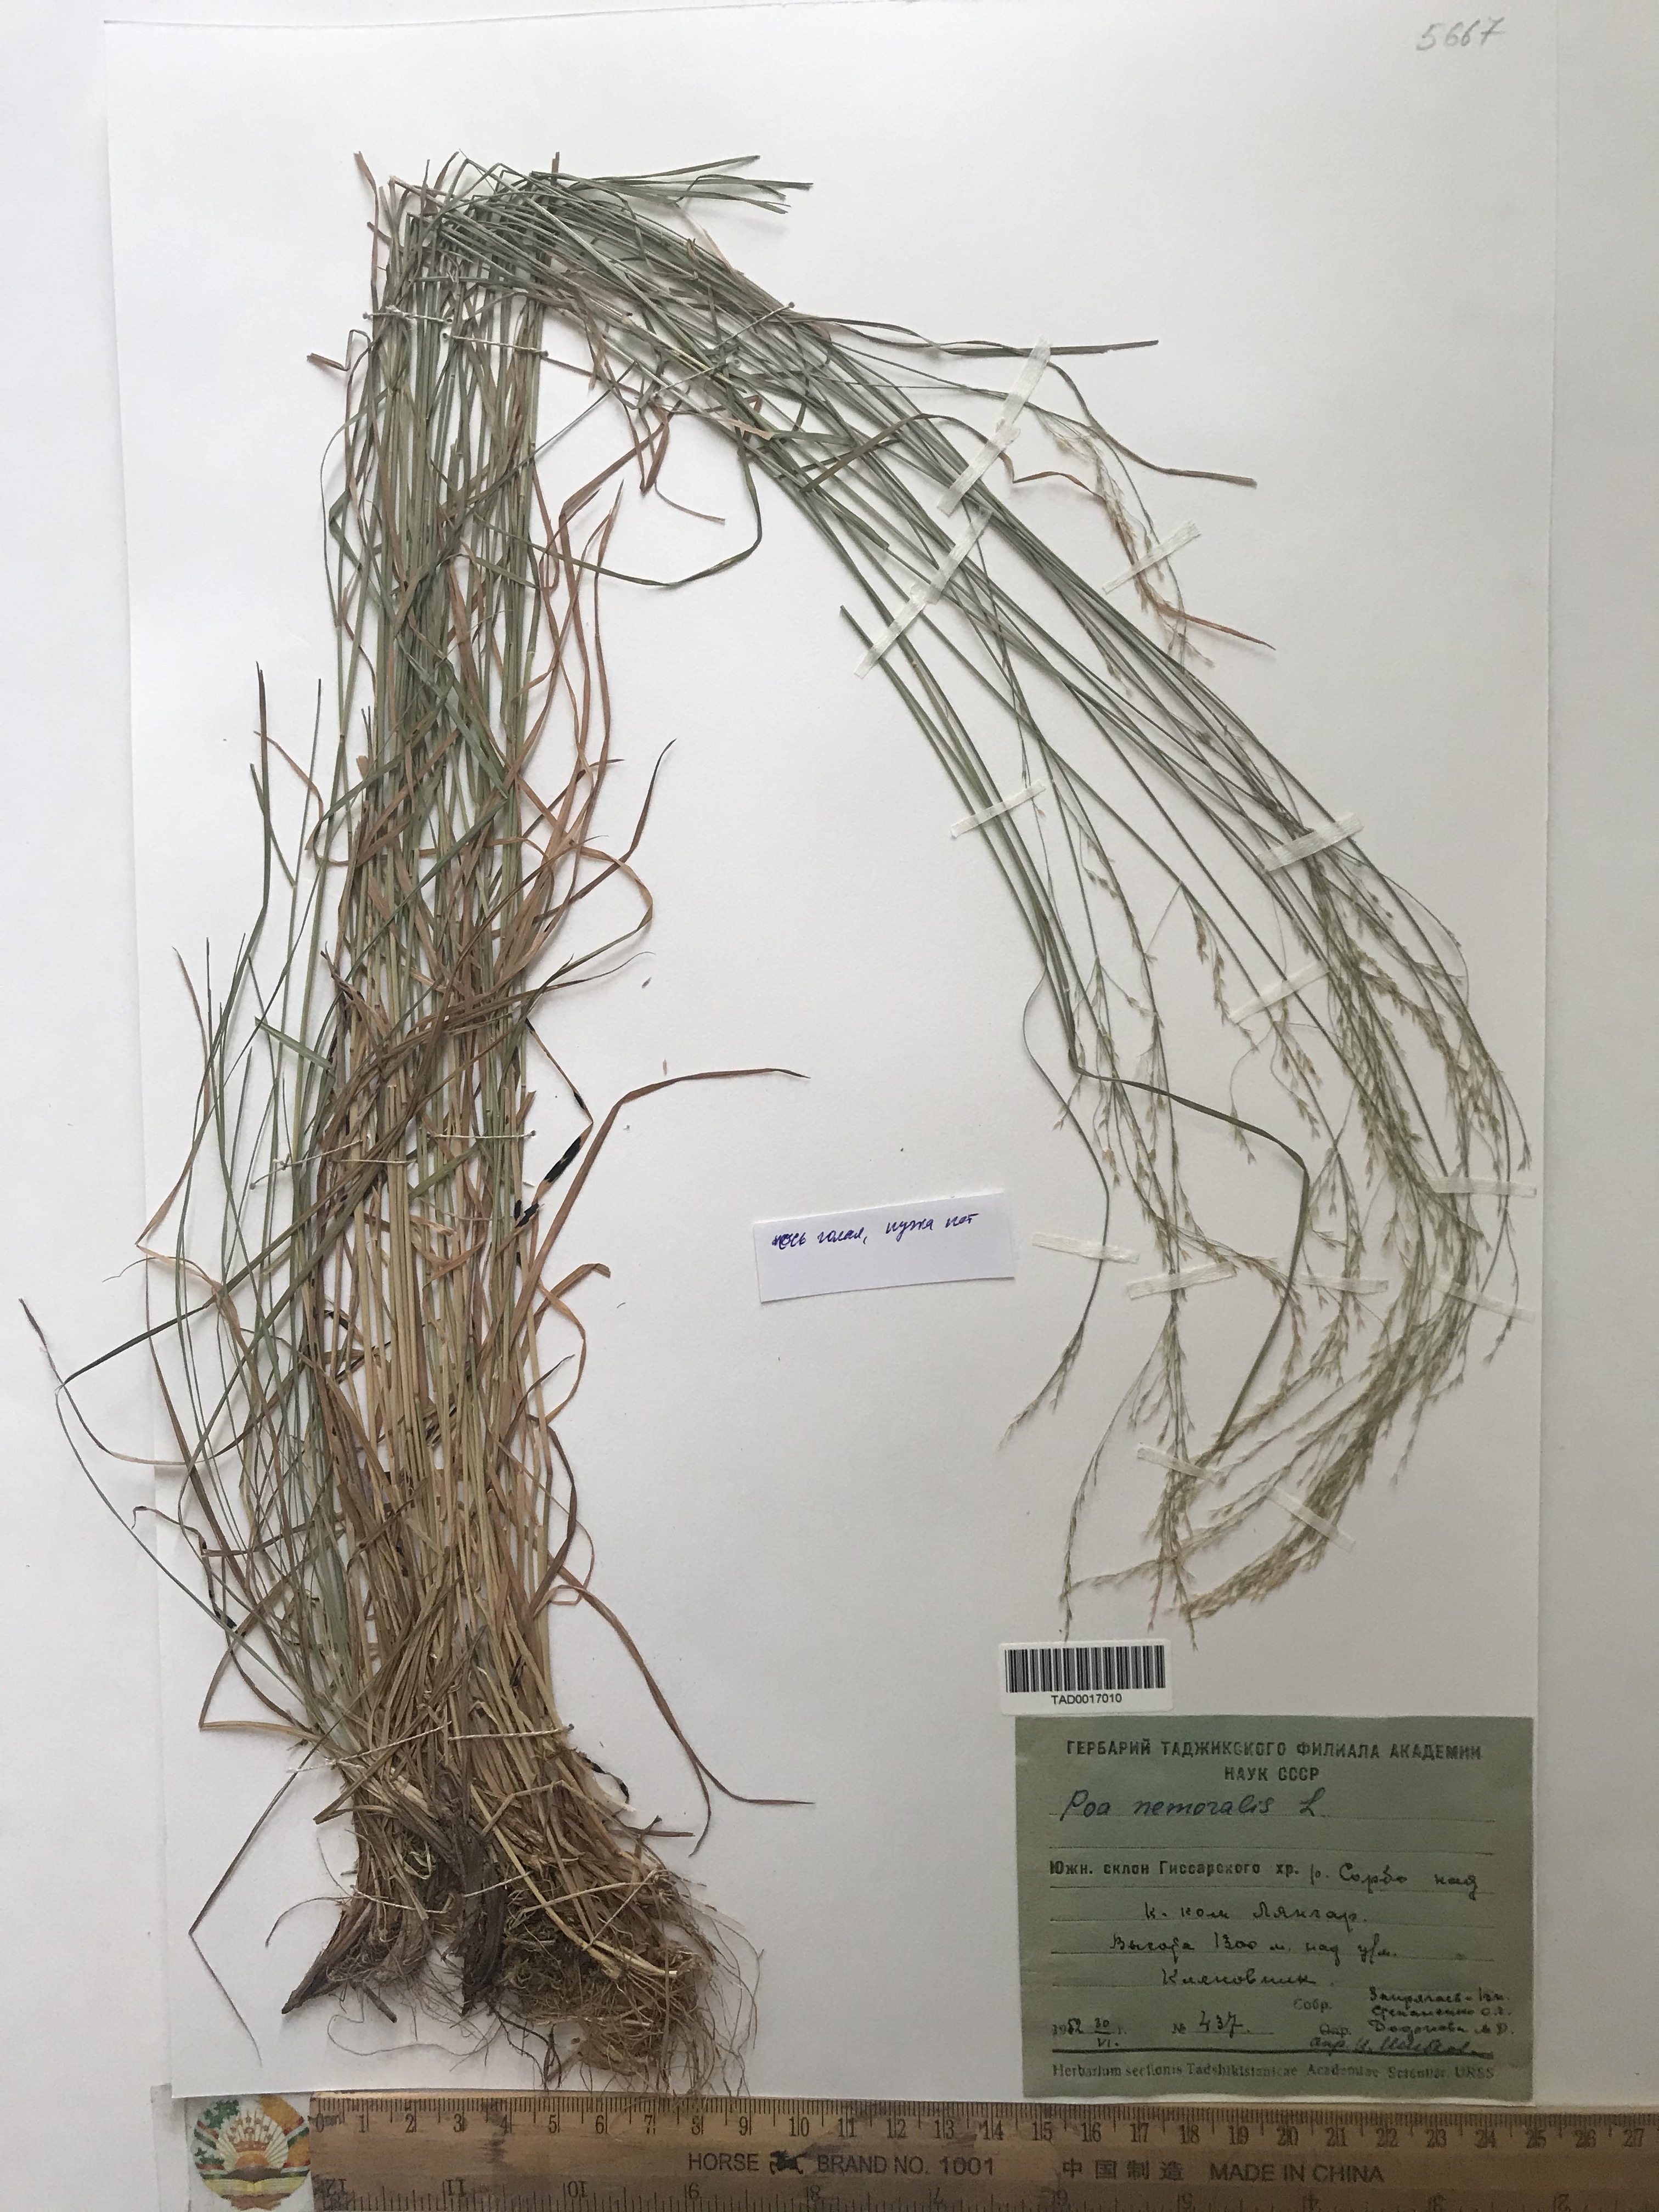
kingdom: Plantae
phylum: Tracheophyta
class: Liliopsida
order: Poales
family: Poaceae
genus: Poa
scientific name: Poa nemoralis
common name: Wood bluegrass
